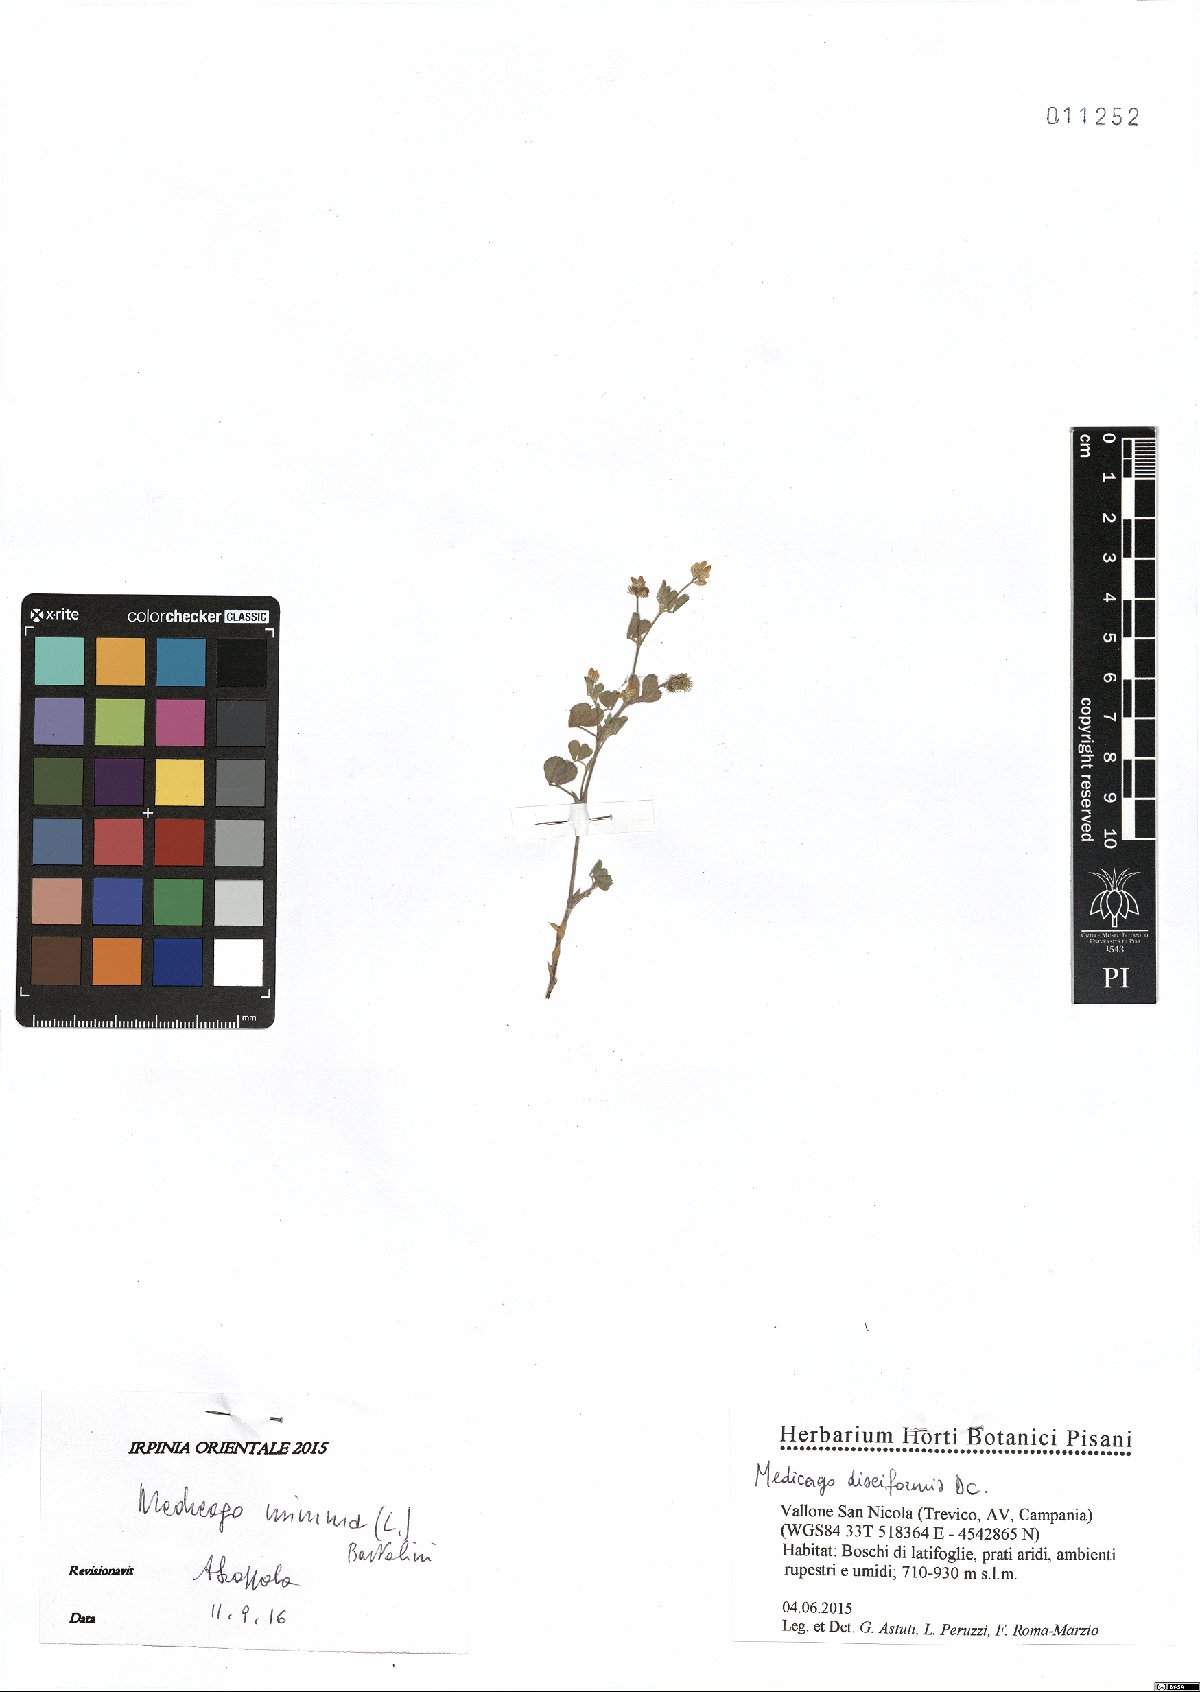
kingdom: Plantae
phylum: Tracheophyta
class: Magnoliopsida
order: Fabales
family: Fabaceae
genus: Medicago
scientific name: Medicago minima
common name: Little bur-clover
